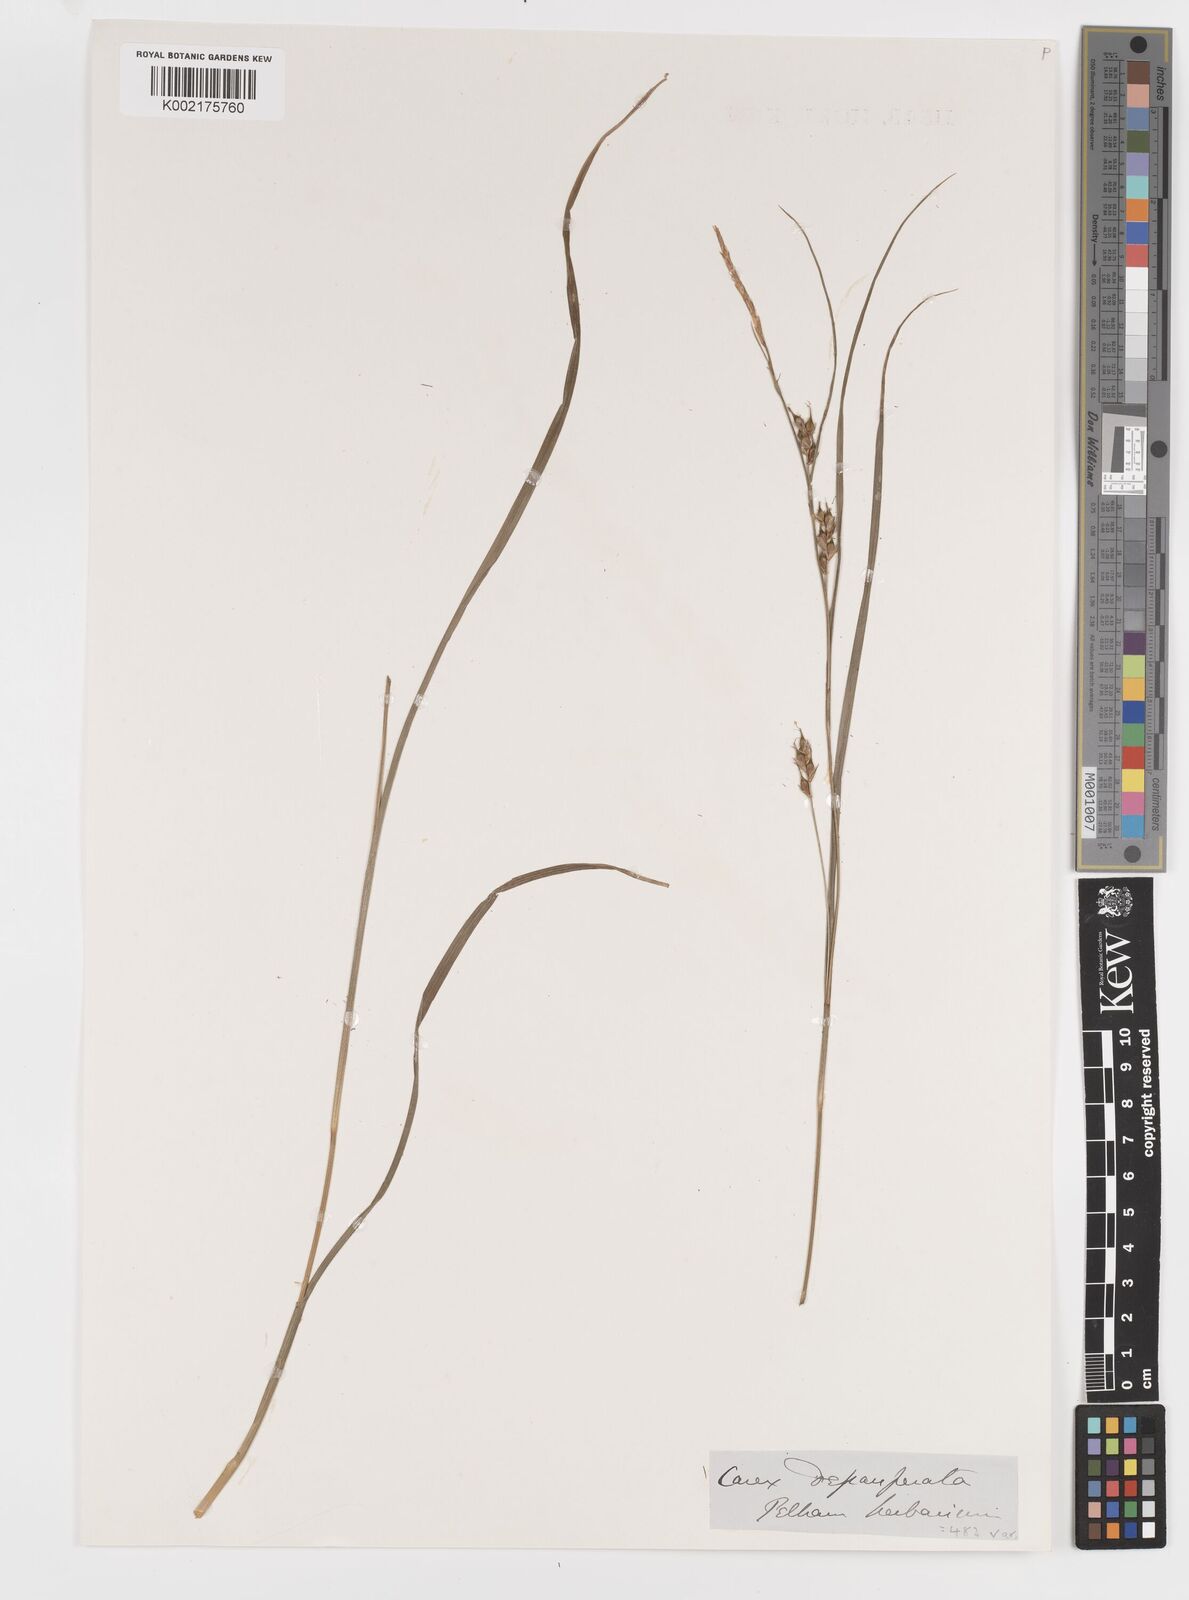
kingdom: Plantae
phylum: Tracheophyta
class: Liliopsida
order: Poales
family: Cyperaceae
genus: Carex
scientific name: Carex
